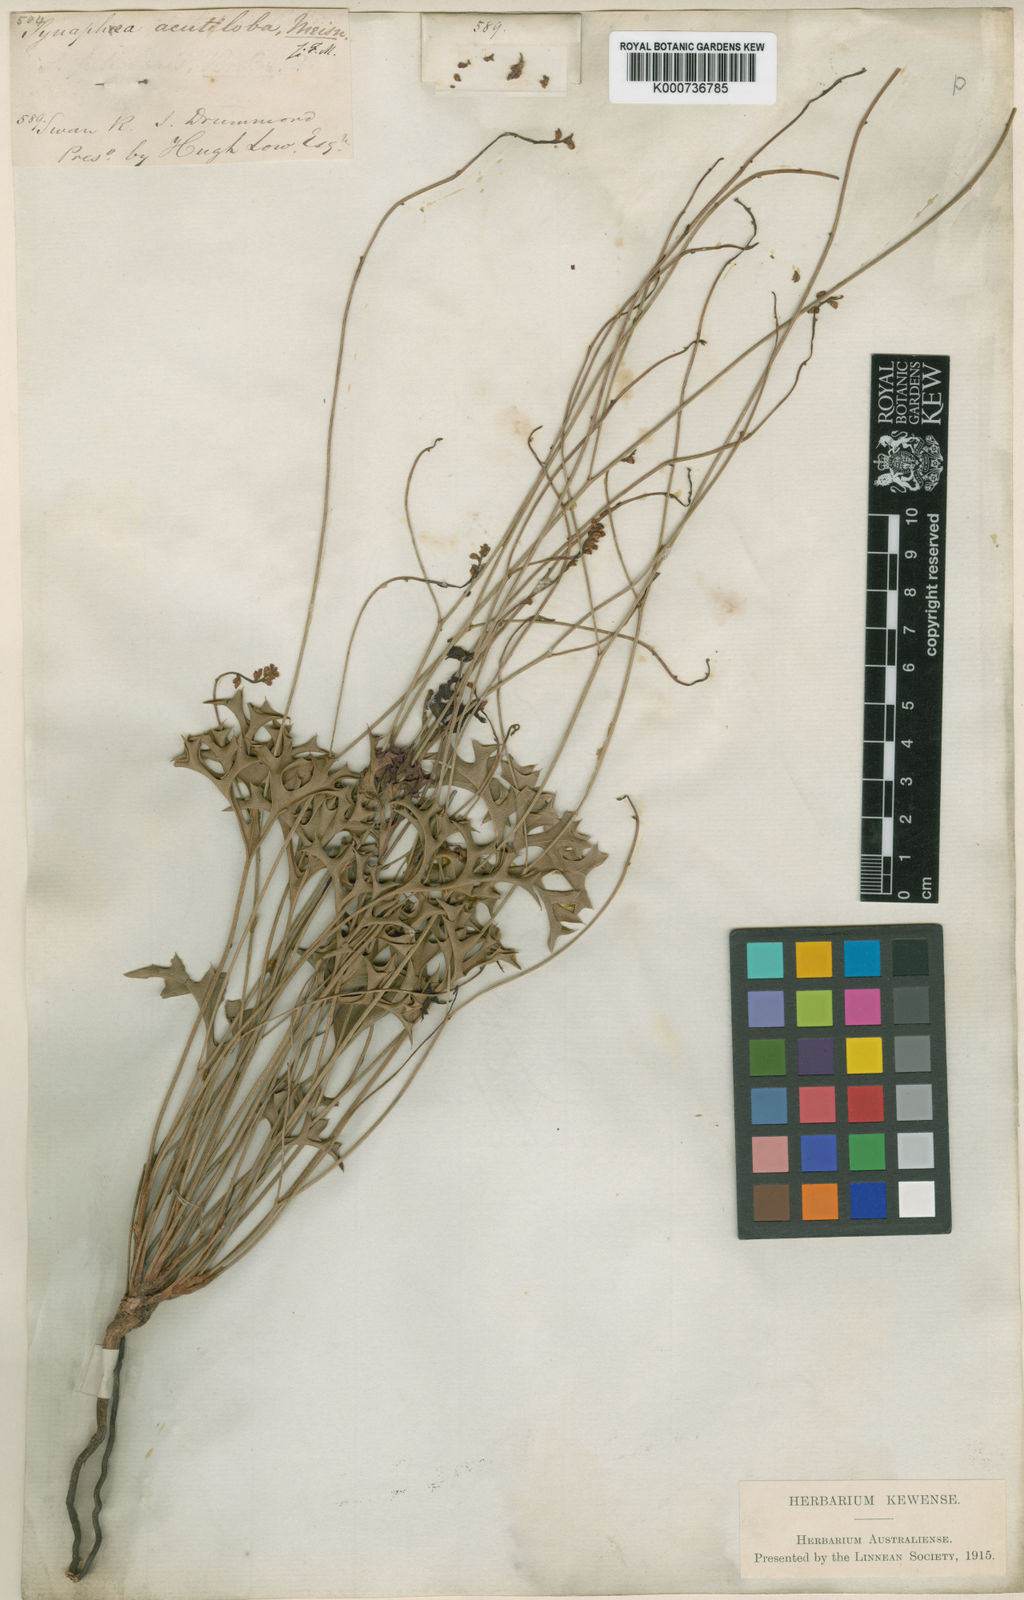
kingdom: Plantae
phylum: Tracheophyta
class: Magnoliopsida
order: Proteales
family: Proteaceae
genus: Synaphea
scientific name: Synaphea acutiloba
